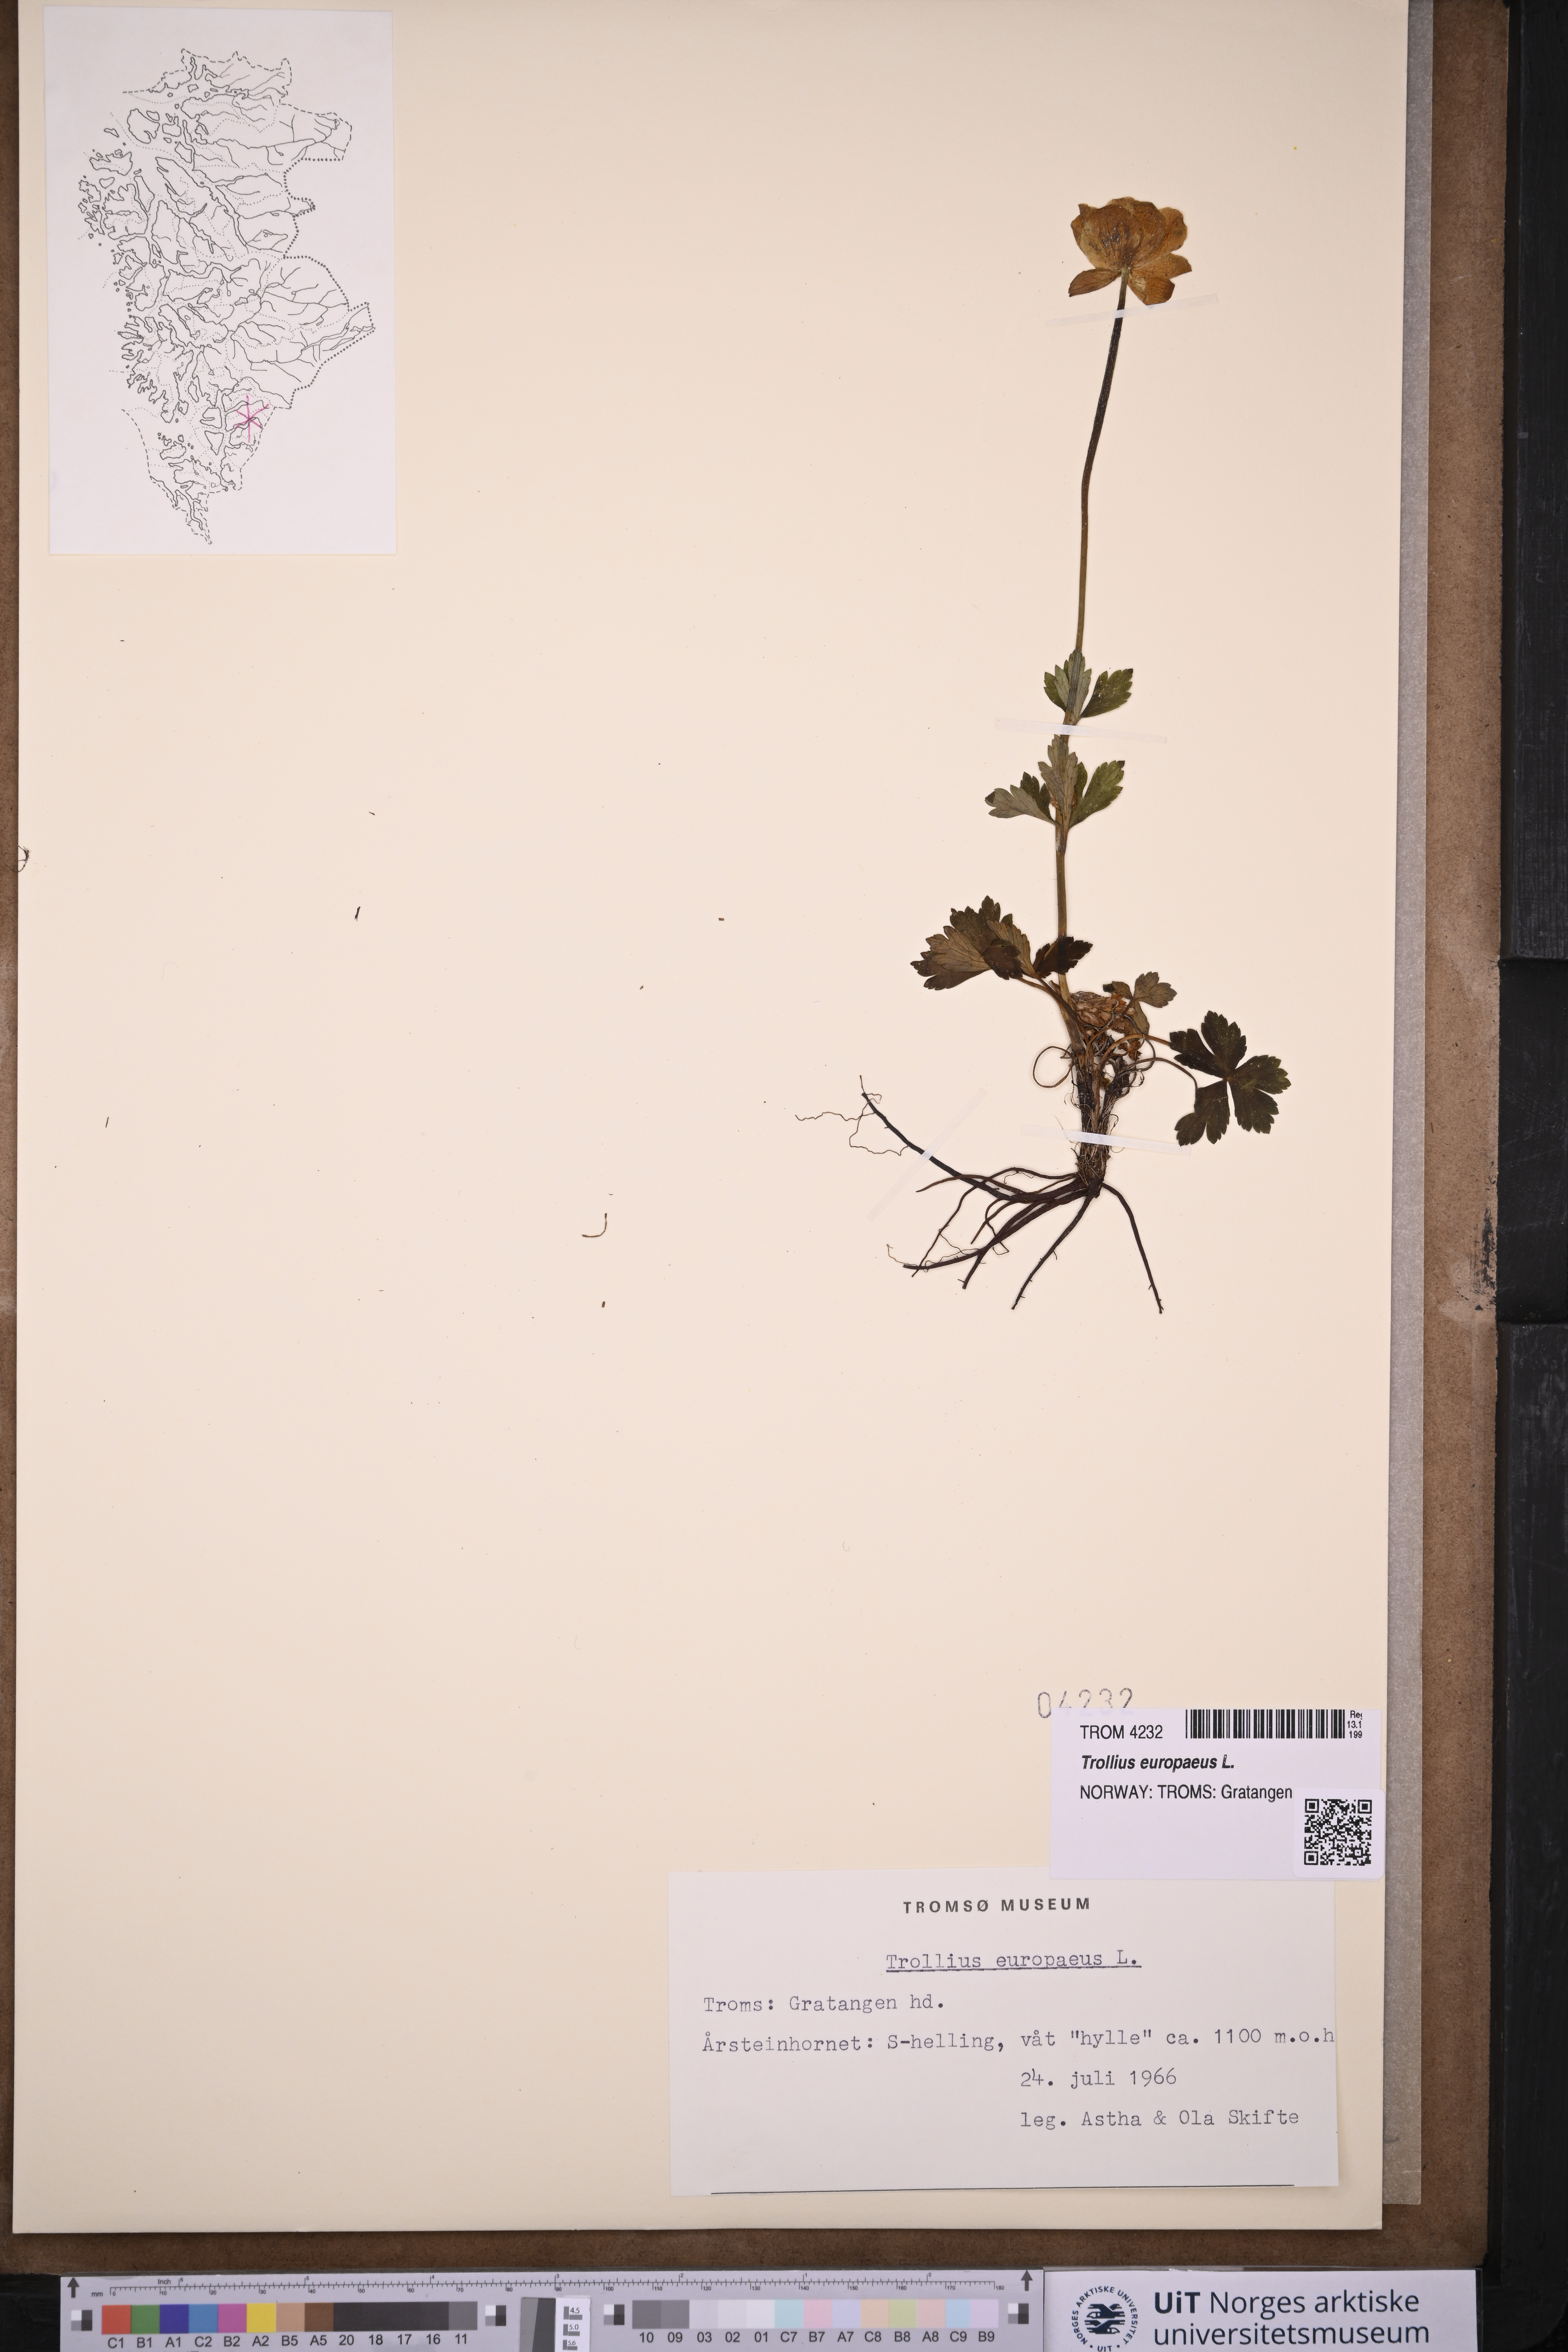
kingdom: Plantae
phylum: Tracheophyta
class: Magnoliopsida
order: Ranunculales
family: Ranunculaceae
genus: Trollius
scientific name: Trollius europaeus
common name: European globeflower
